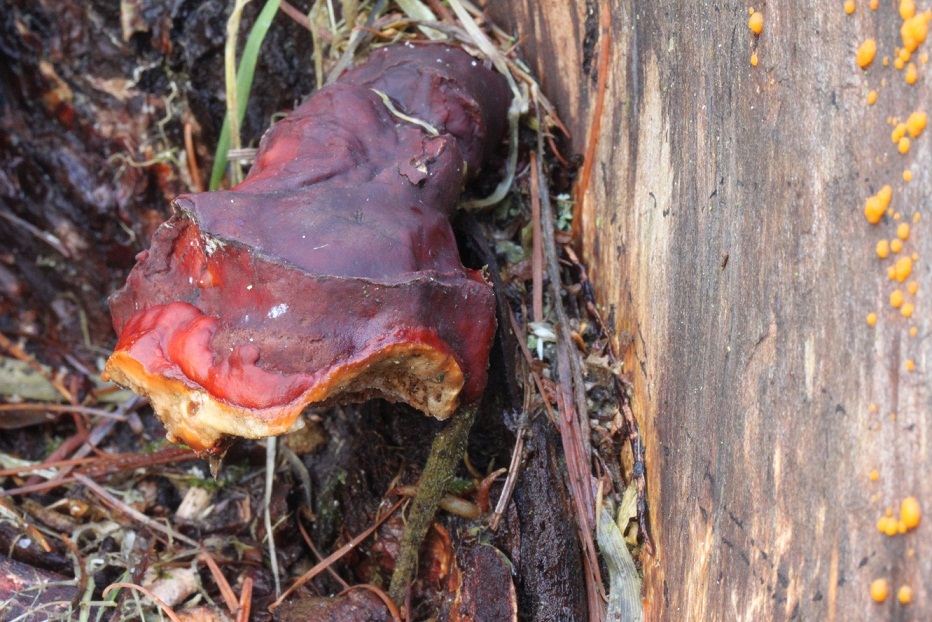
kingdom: Fungi
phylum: Basidiomycota
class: Agaricomycetes
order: Polyporales
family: Polyporaceae
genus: Ganoderma
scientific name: Ganoderma lucidum
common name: skinnende lakporesvamp
